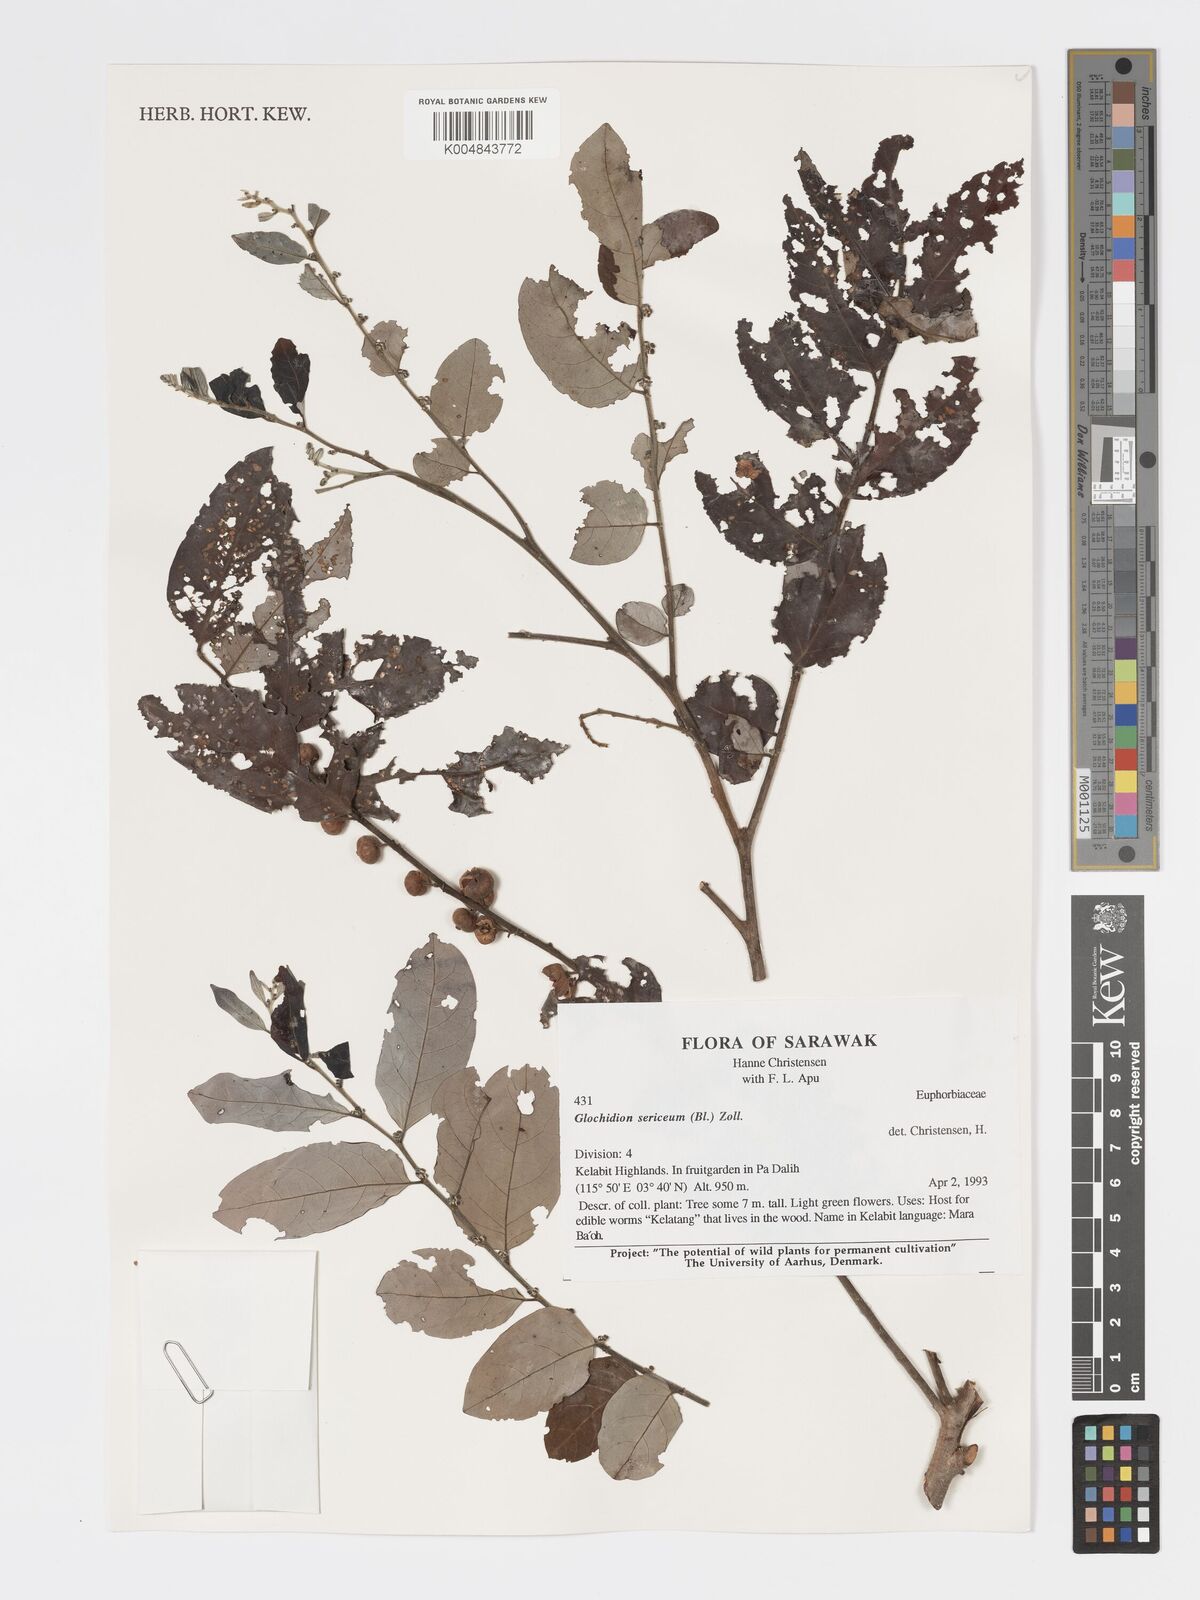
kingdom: Plantae
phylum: Tracheophyta
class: Magnoliopsida
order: Malpighiales
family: Phyllanthaceae
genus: Glochidion
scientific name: Glochidion sericeum
